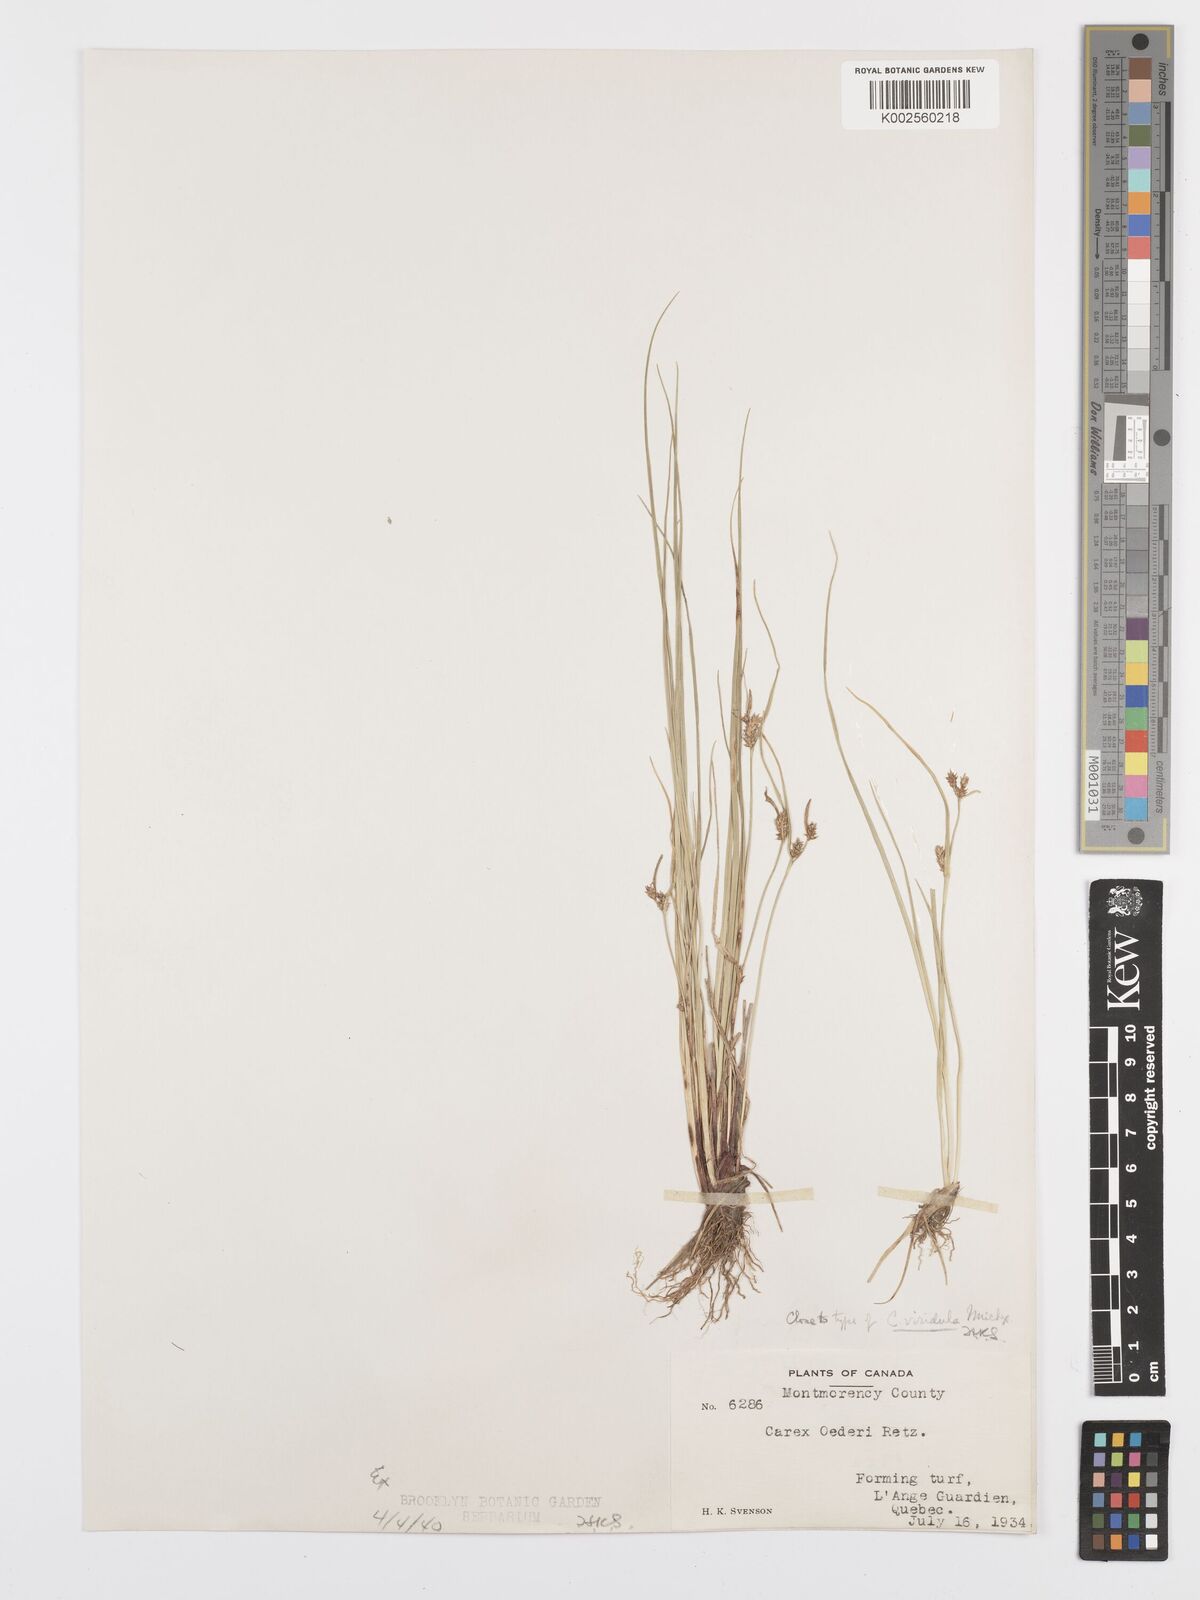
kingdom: Plantae
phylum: Tracheophyta
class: Liliopsida
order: Poales
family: Cyperaceae
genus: Carex
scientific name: Carex oederi
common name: Common & small-fruited yellow-sedge
